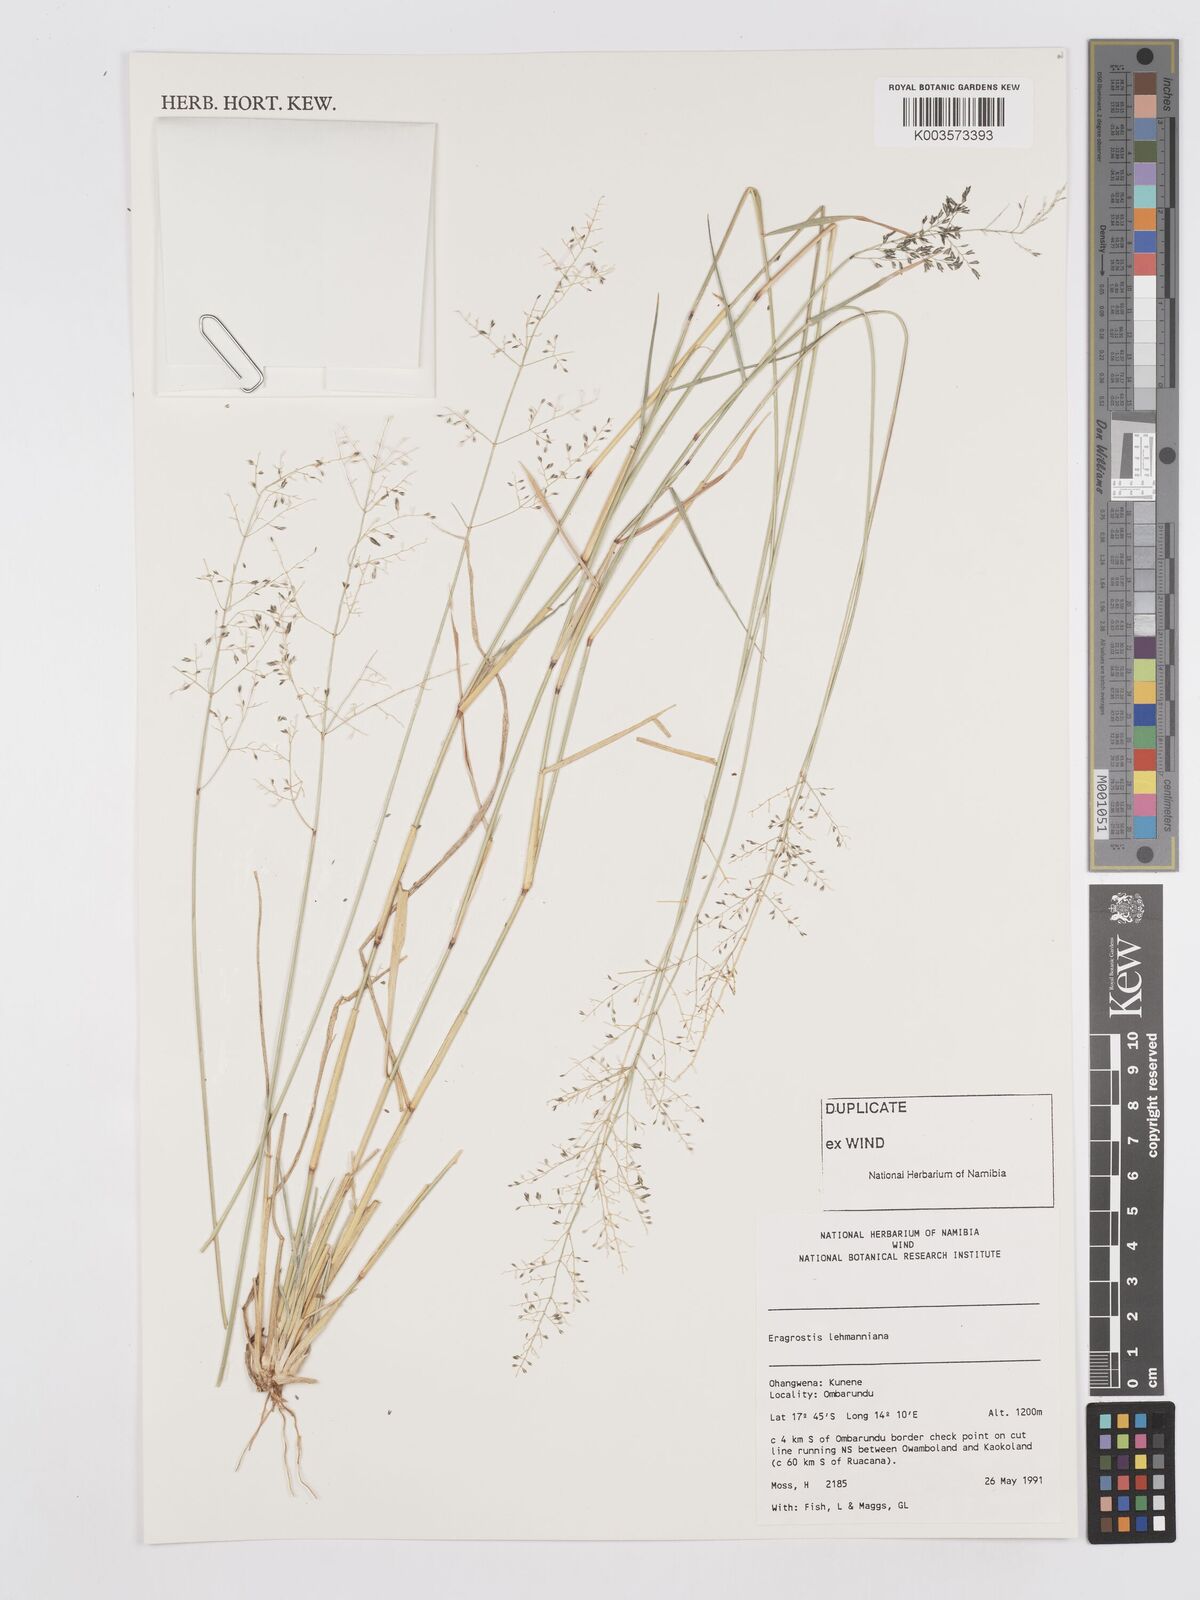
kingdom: Plantae
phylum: Tracheophyta
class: Liliopsida
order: Poales
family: Poaceae
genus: Eragrostis
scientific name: Eragrostis lehmanniana
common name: Lehmann lovegrass
